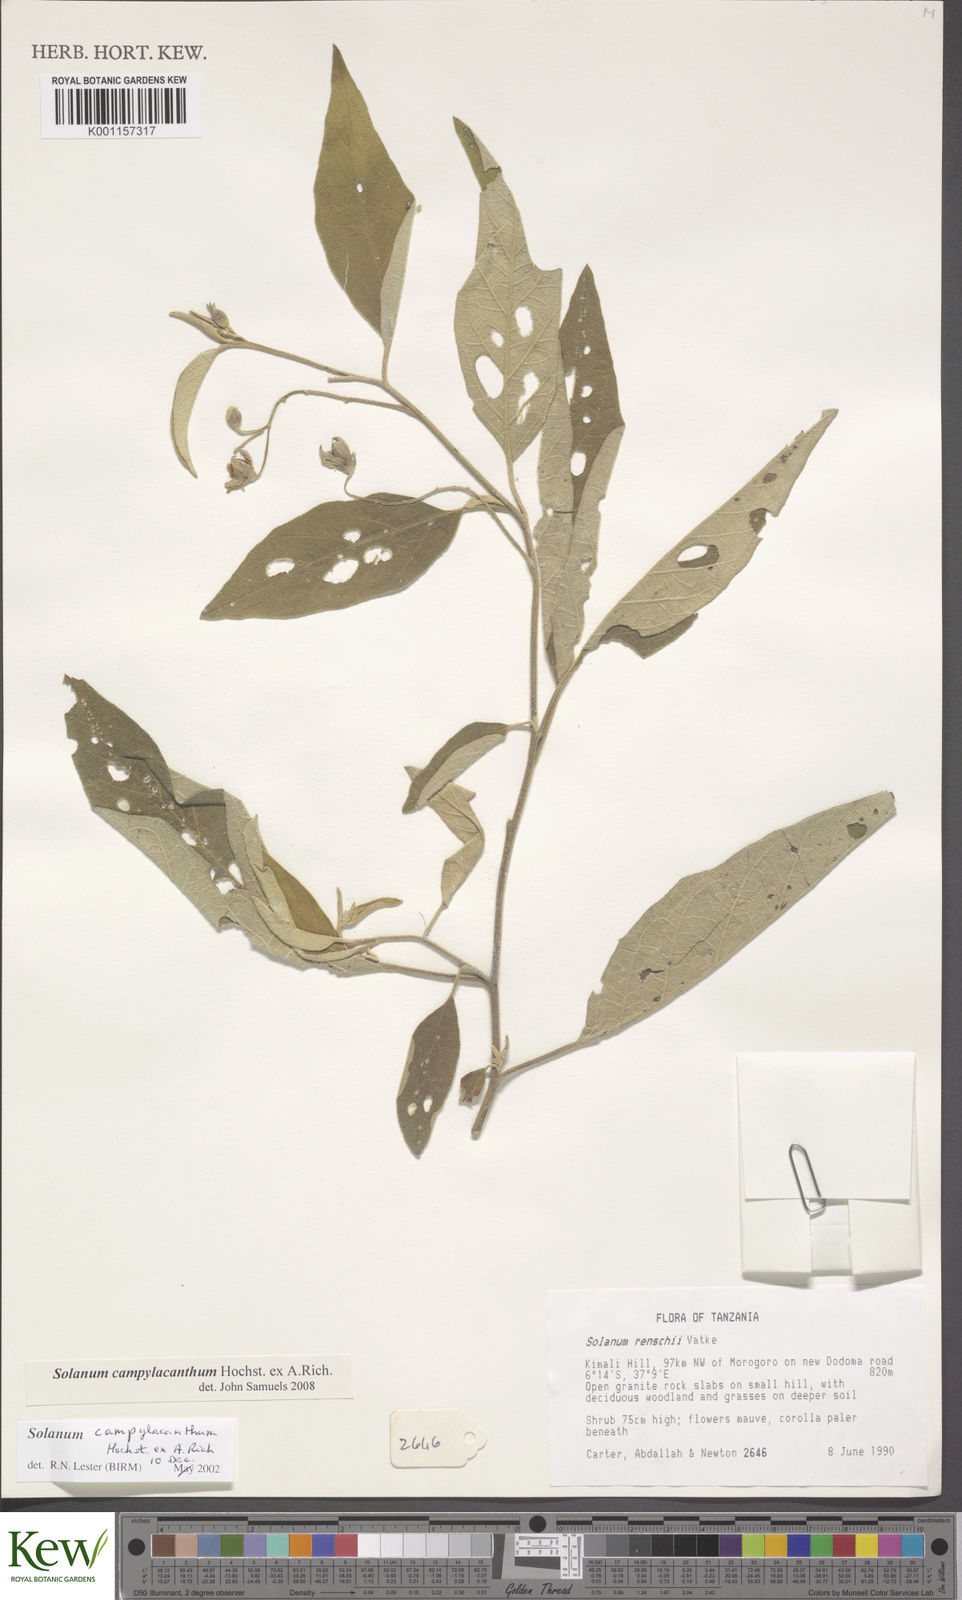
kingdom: Plantae
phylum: Tracheophyta
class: Magnoliopsida
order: Solanales
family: Solanaceae
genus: Solanum
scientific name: Solanum campylacanthum
